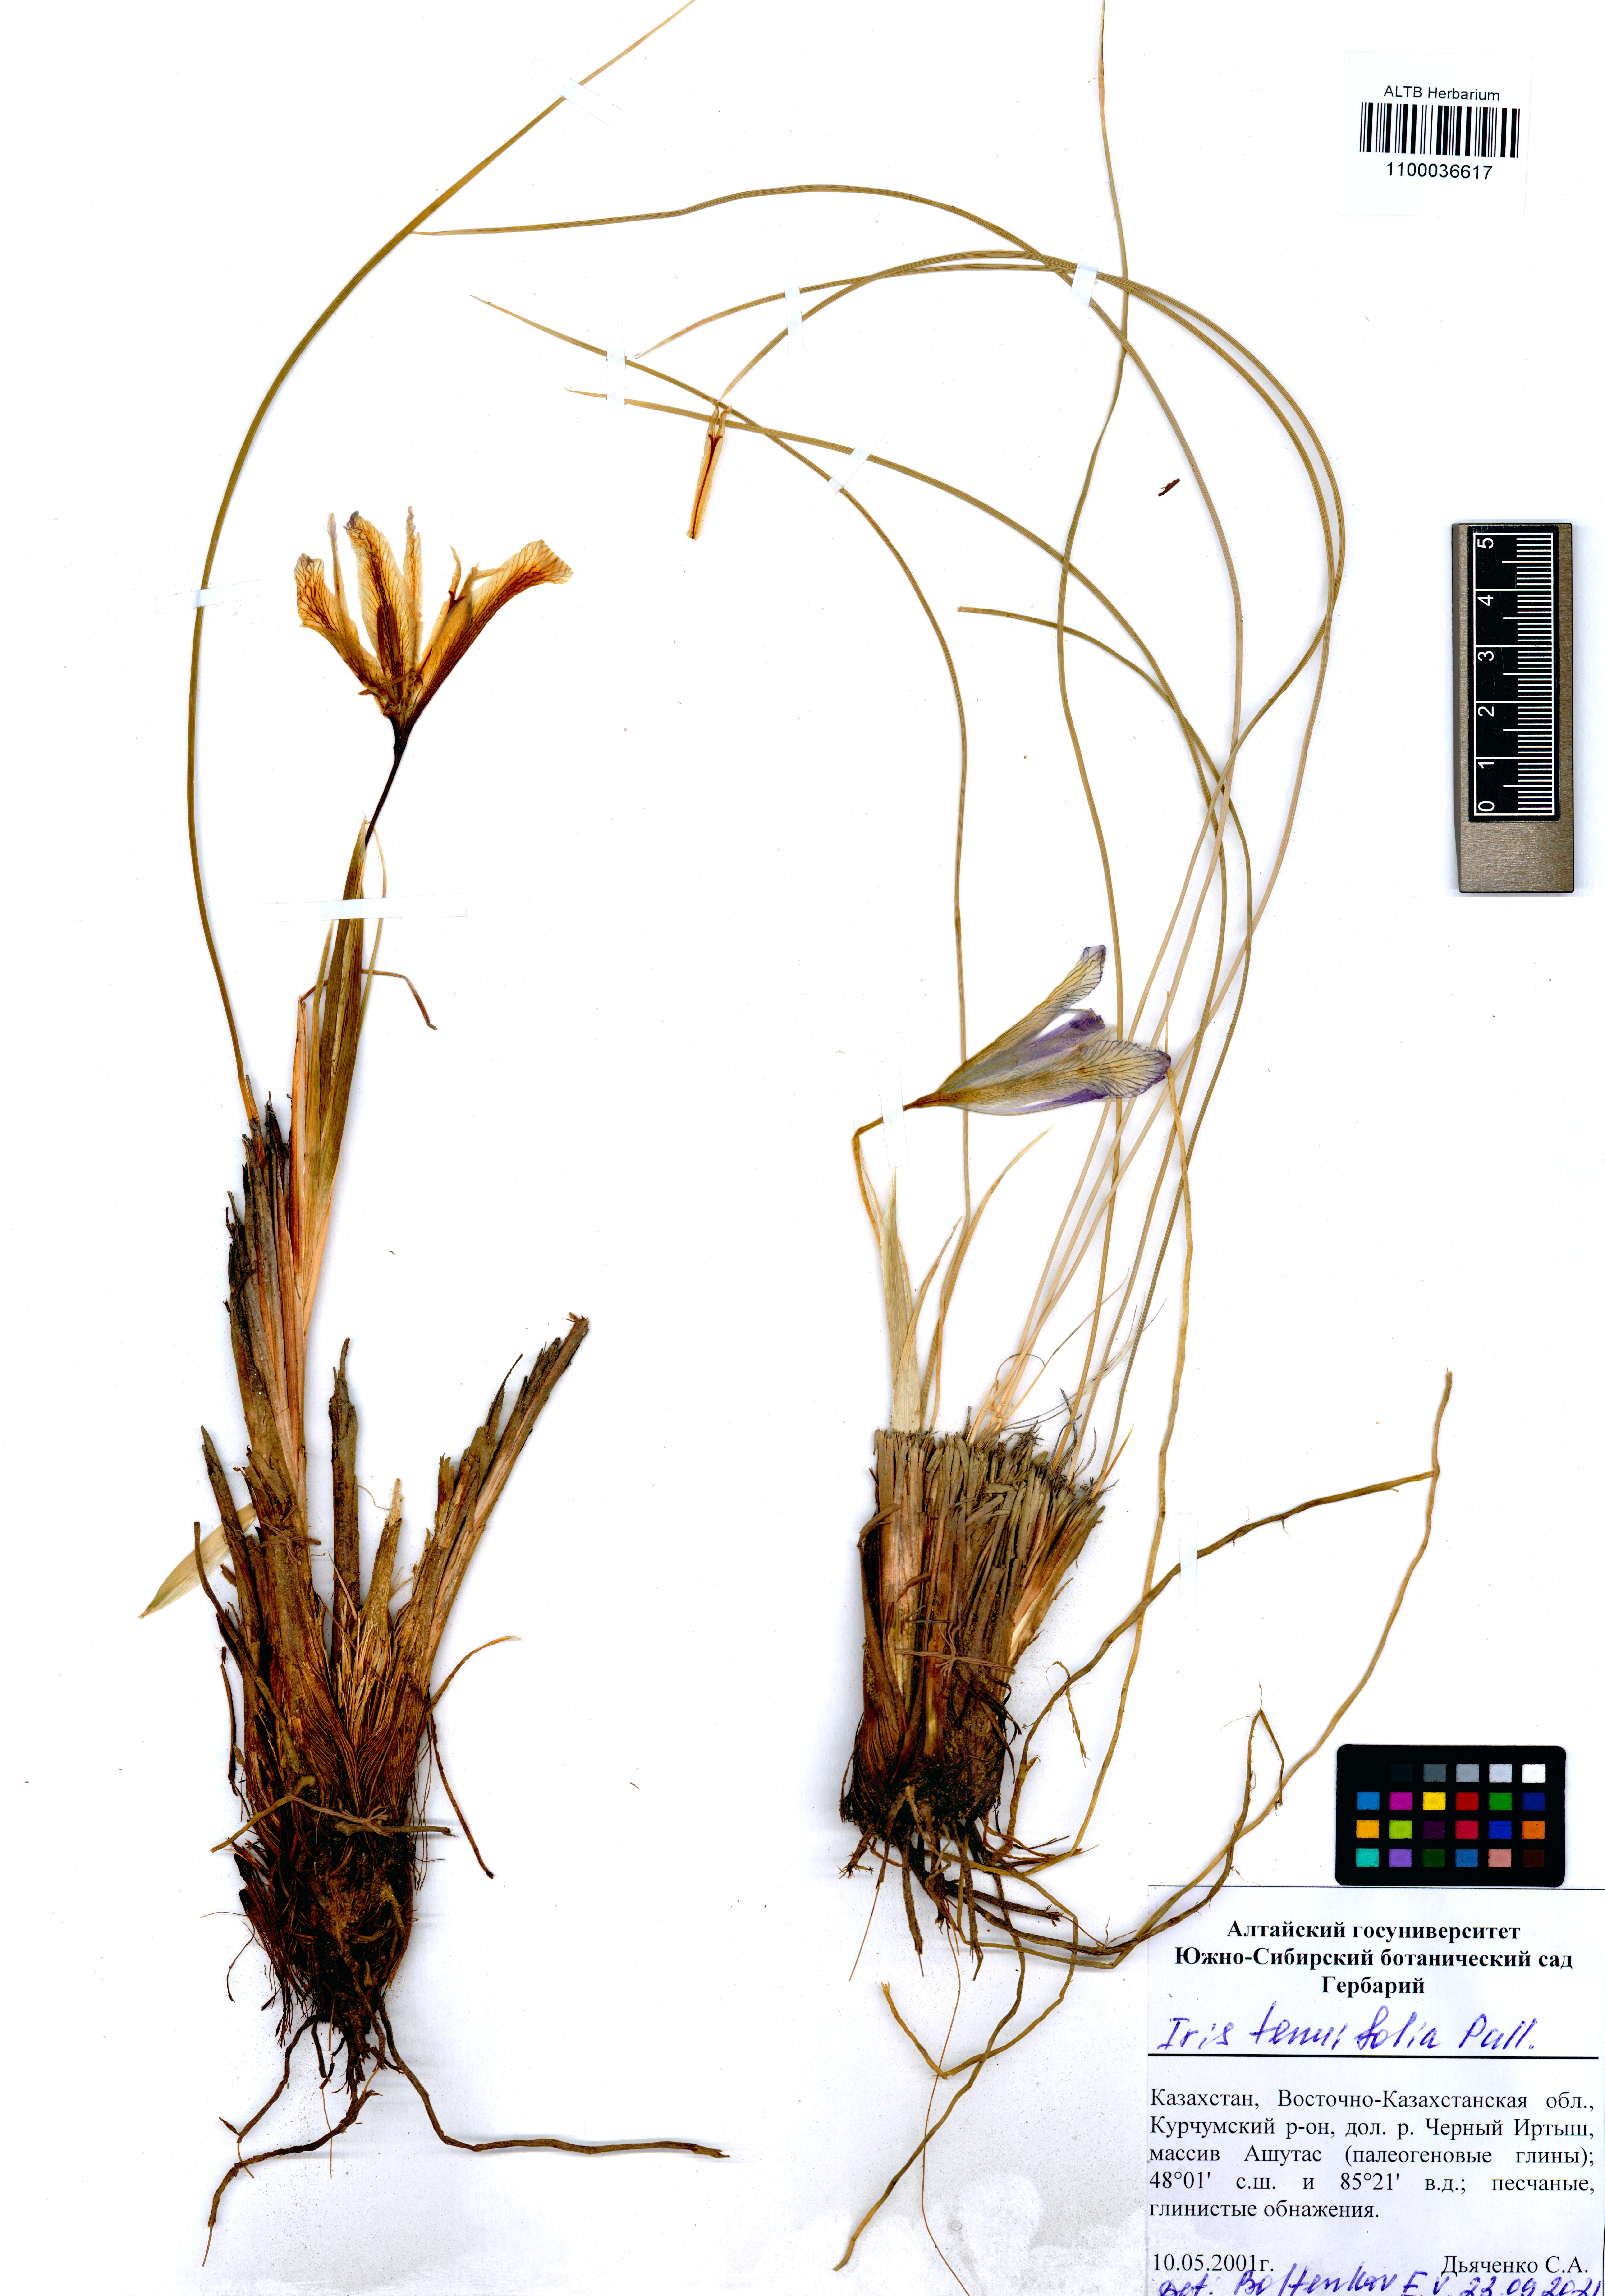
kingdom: Plantae
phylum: Tracheophyta
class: Liliopsida
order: Asparagales
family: Iridaceae
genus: Iris
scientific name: Iris tenuifolia
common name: Slender-leaf iris
